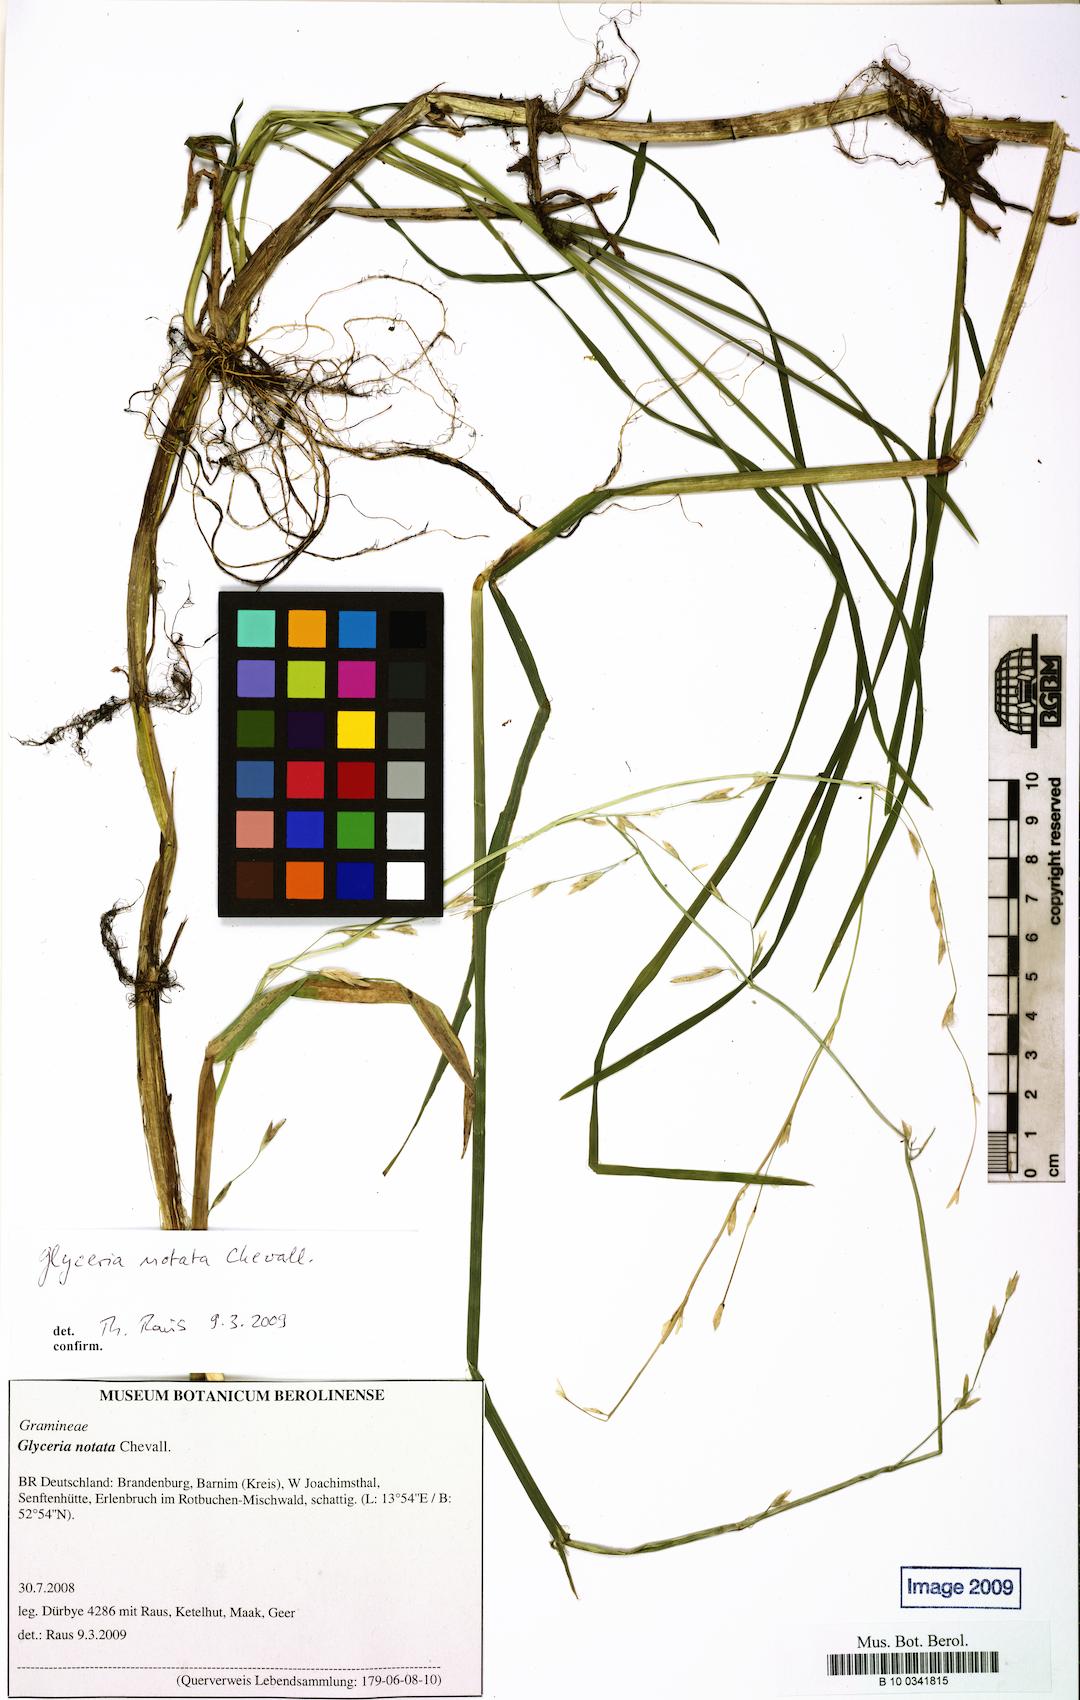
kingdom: Plantae
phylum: Tracheophyta
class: Liliopsida
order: Poales
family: Poaceae
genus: Glyceria
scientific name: Glyceria notata
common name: Plicate sweet-grass
